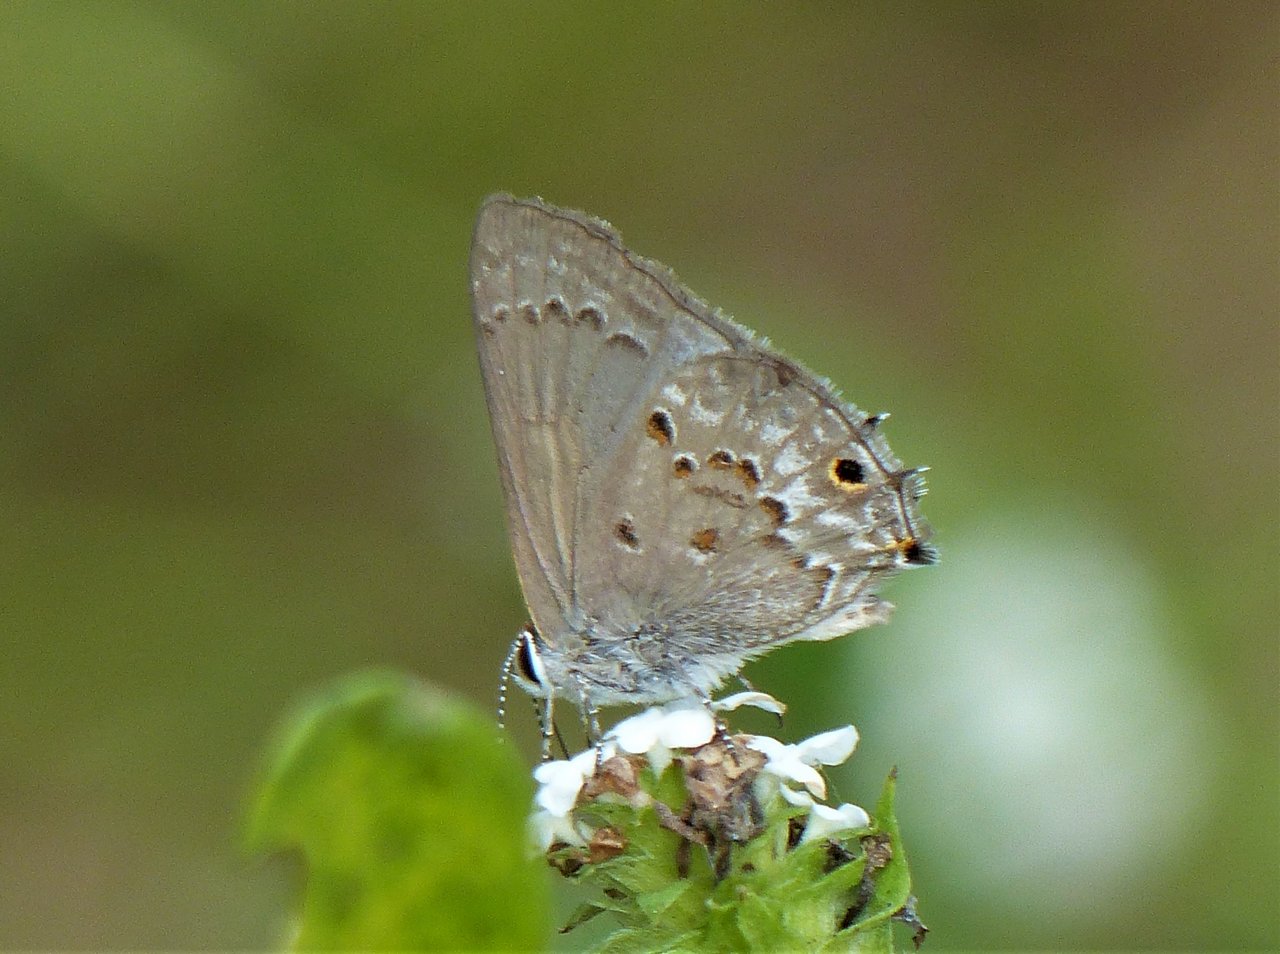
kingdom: Animalia
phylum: Arthropoda
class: Insecta
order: Lepidoptera
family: Lycaenidae
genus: Callicista
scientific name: Callicista columella
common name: Mallow Scrub-Hairstreak
